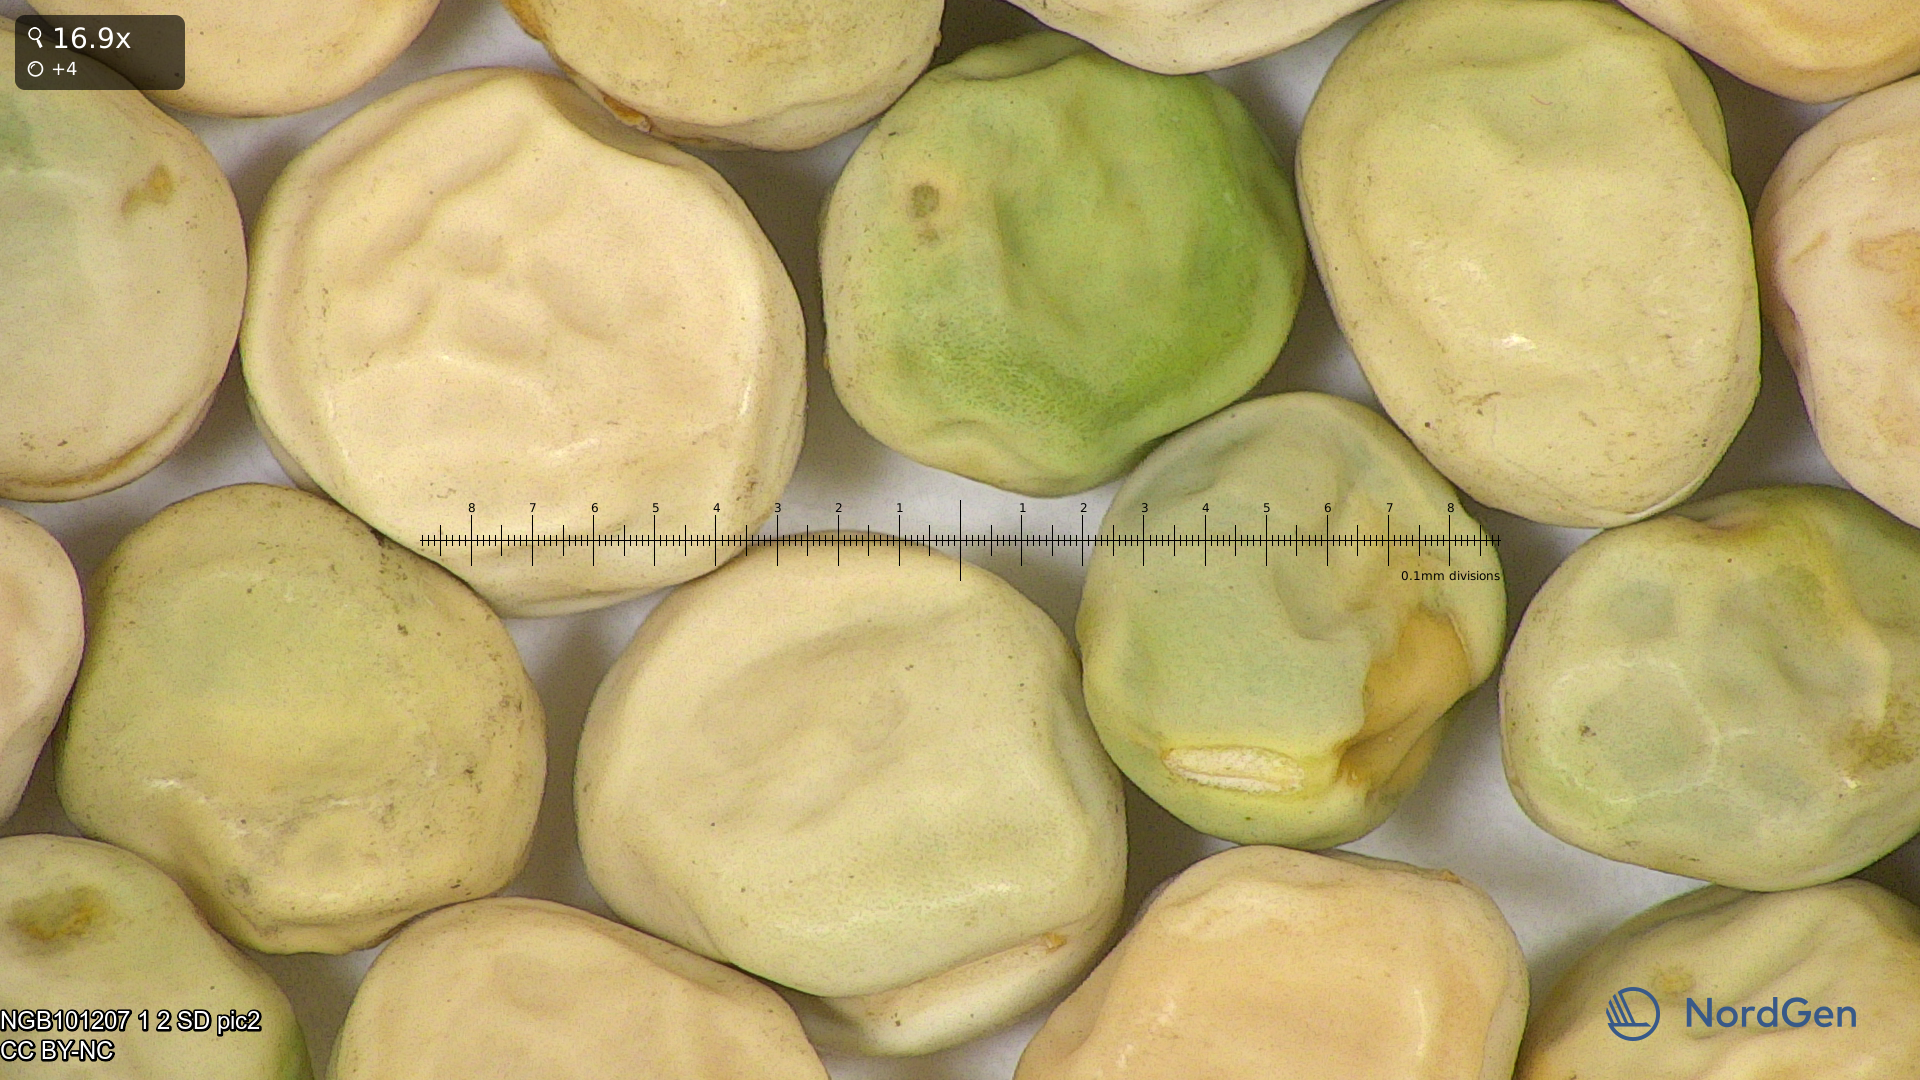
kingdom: Plantae
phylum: Tracheophyta
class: Magnoliopsida
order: Fabales
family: Fabaceae
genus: Lathyrus
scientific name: Lathyrus oleraceus
